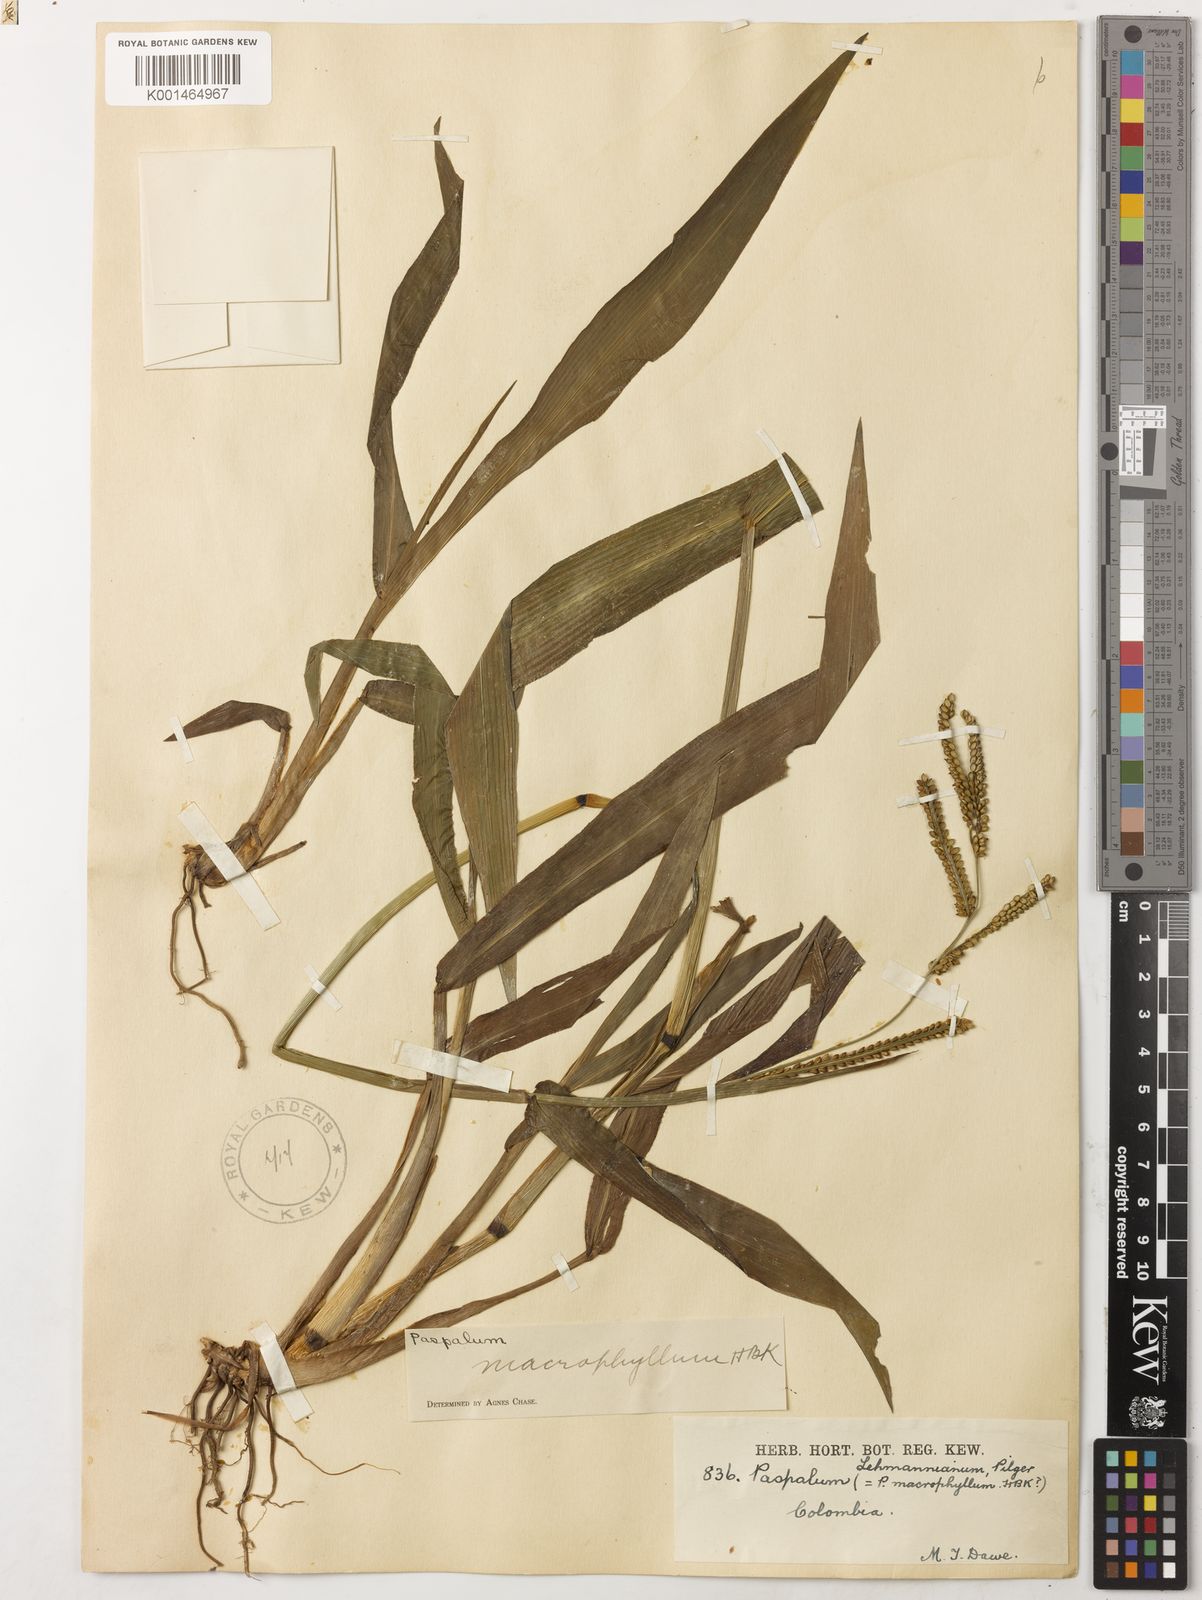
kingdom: Plantae
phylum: Tracheophyta
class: Liliopsida
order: Poales
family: Poaceae
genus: Paspalum
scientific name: Paspalum macrophyllum
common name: Bigleaf paspalum
